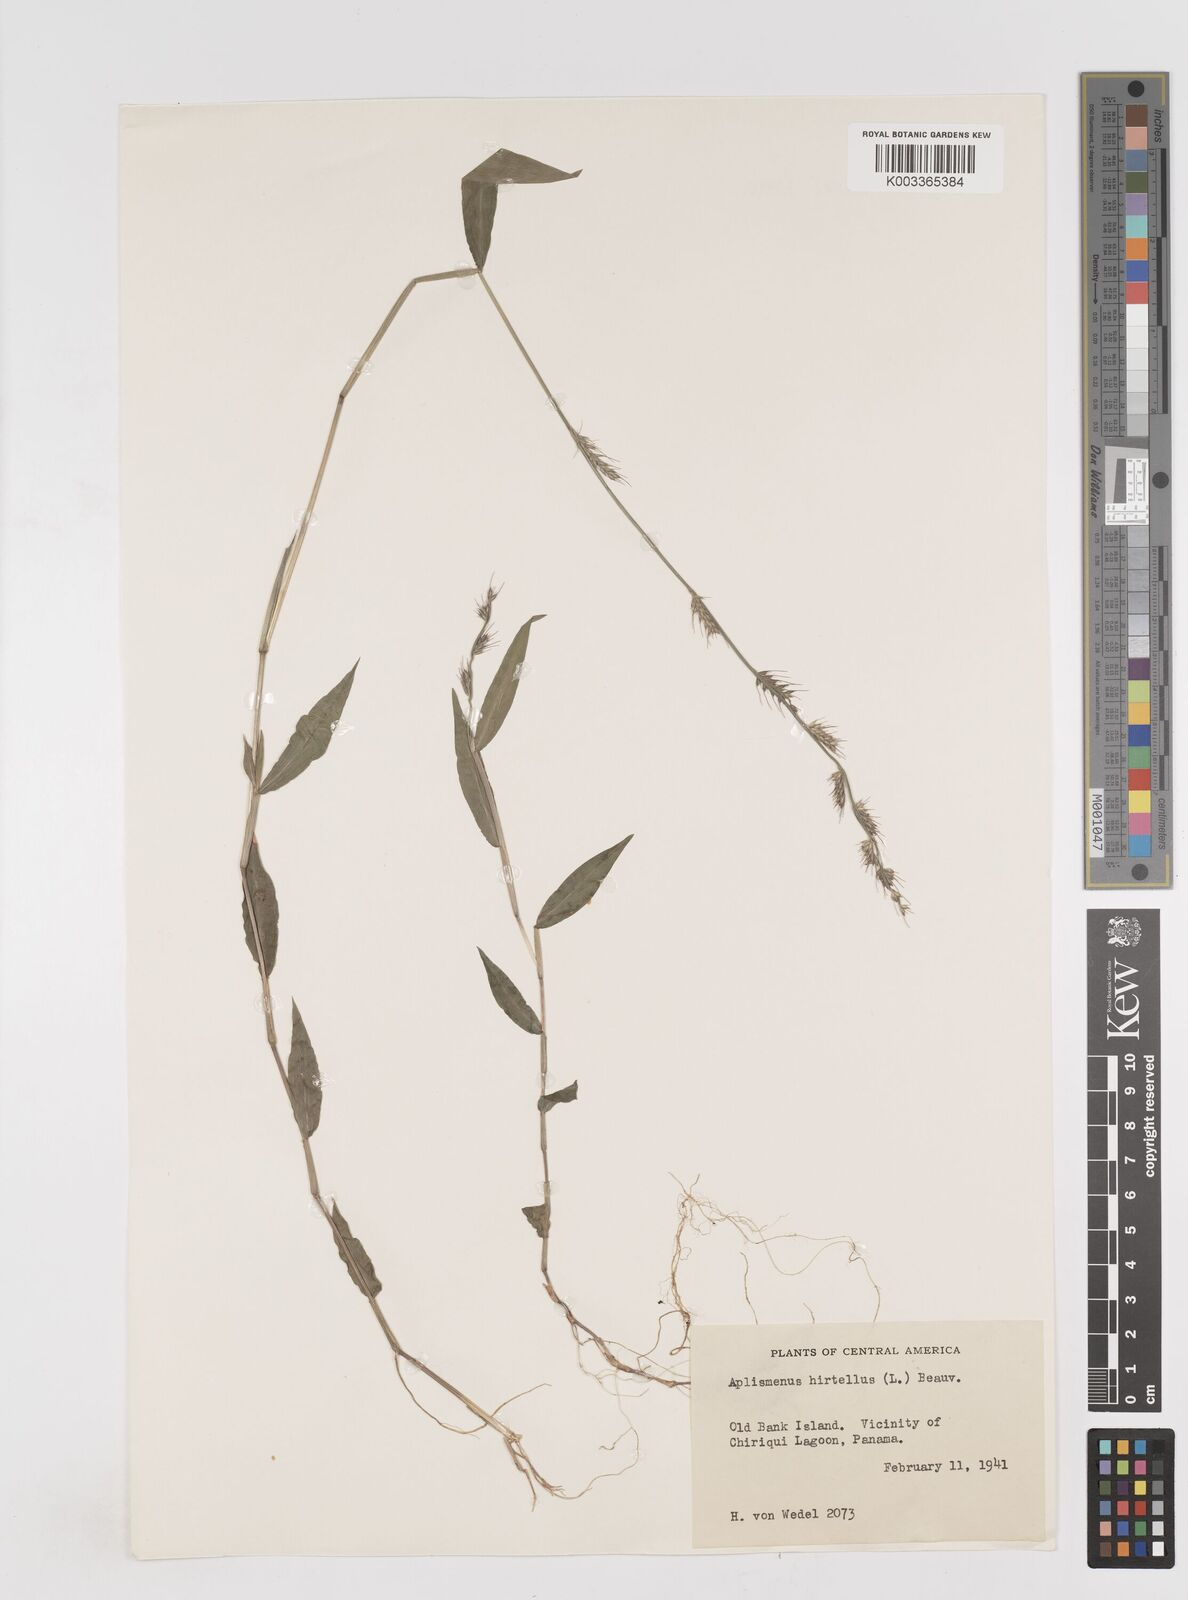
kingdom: Plantae
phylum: Tracheophyta
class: Liliopsida
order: Poales
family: Poaceae
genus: Oplismenus
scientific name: Oplismenus hirtellus
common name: Basketgrass
